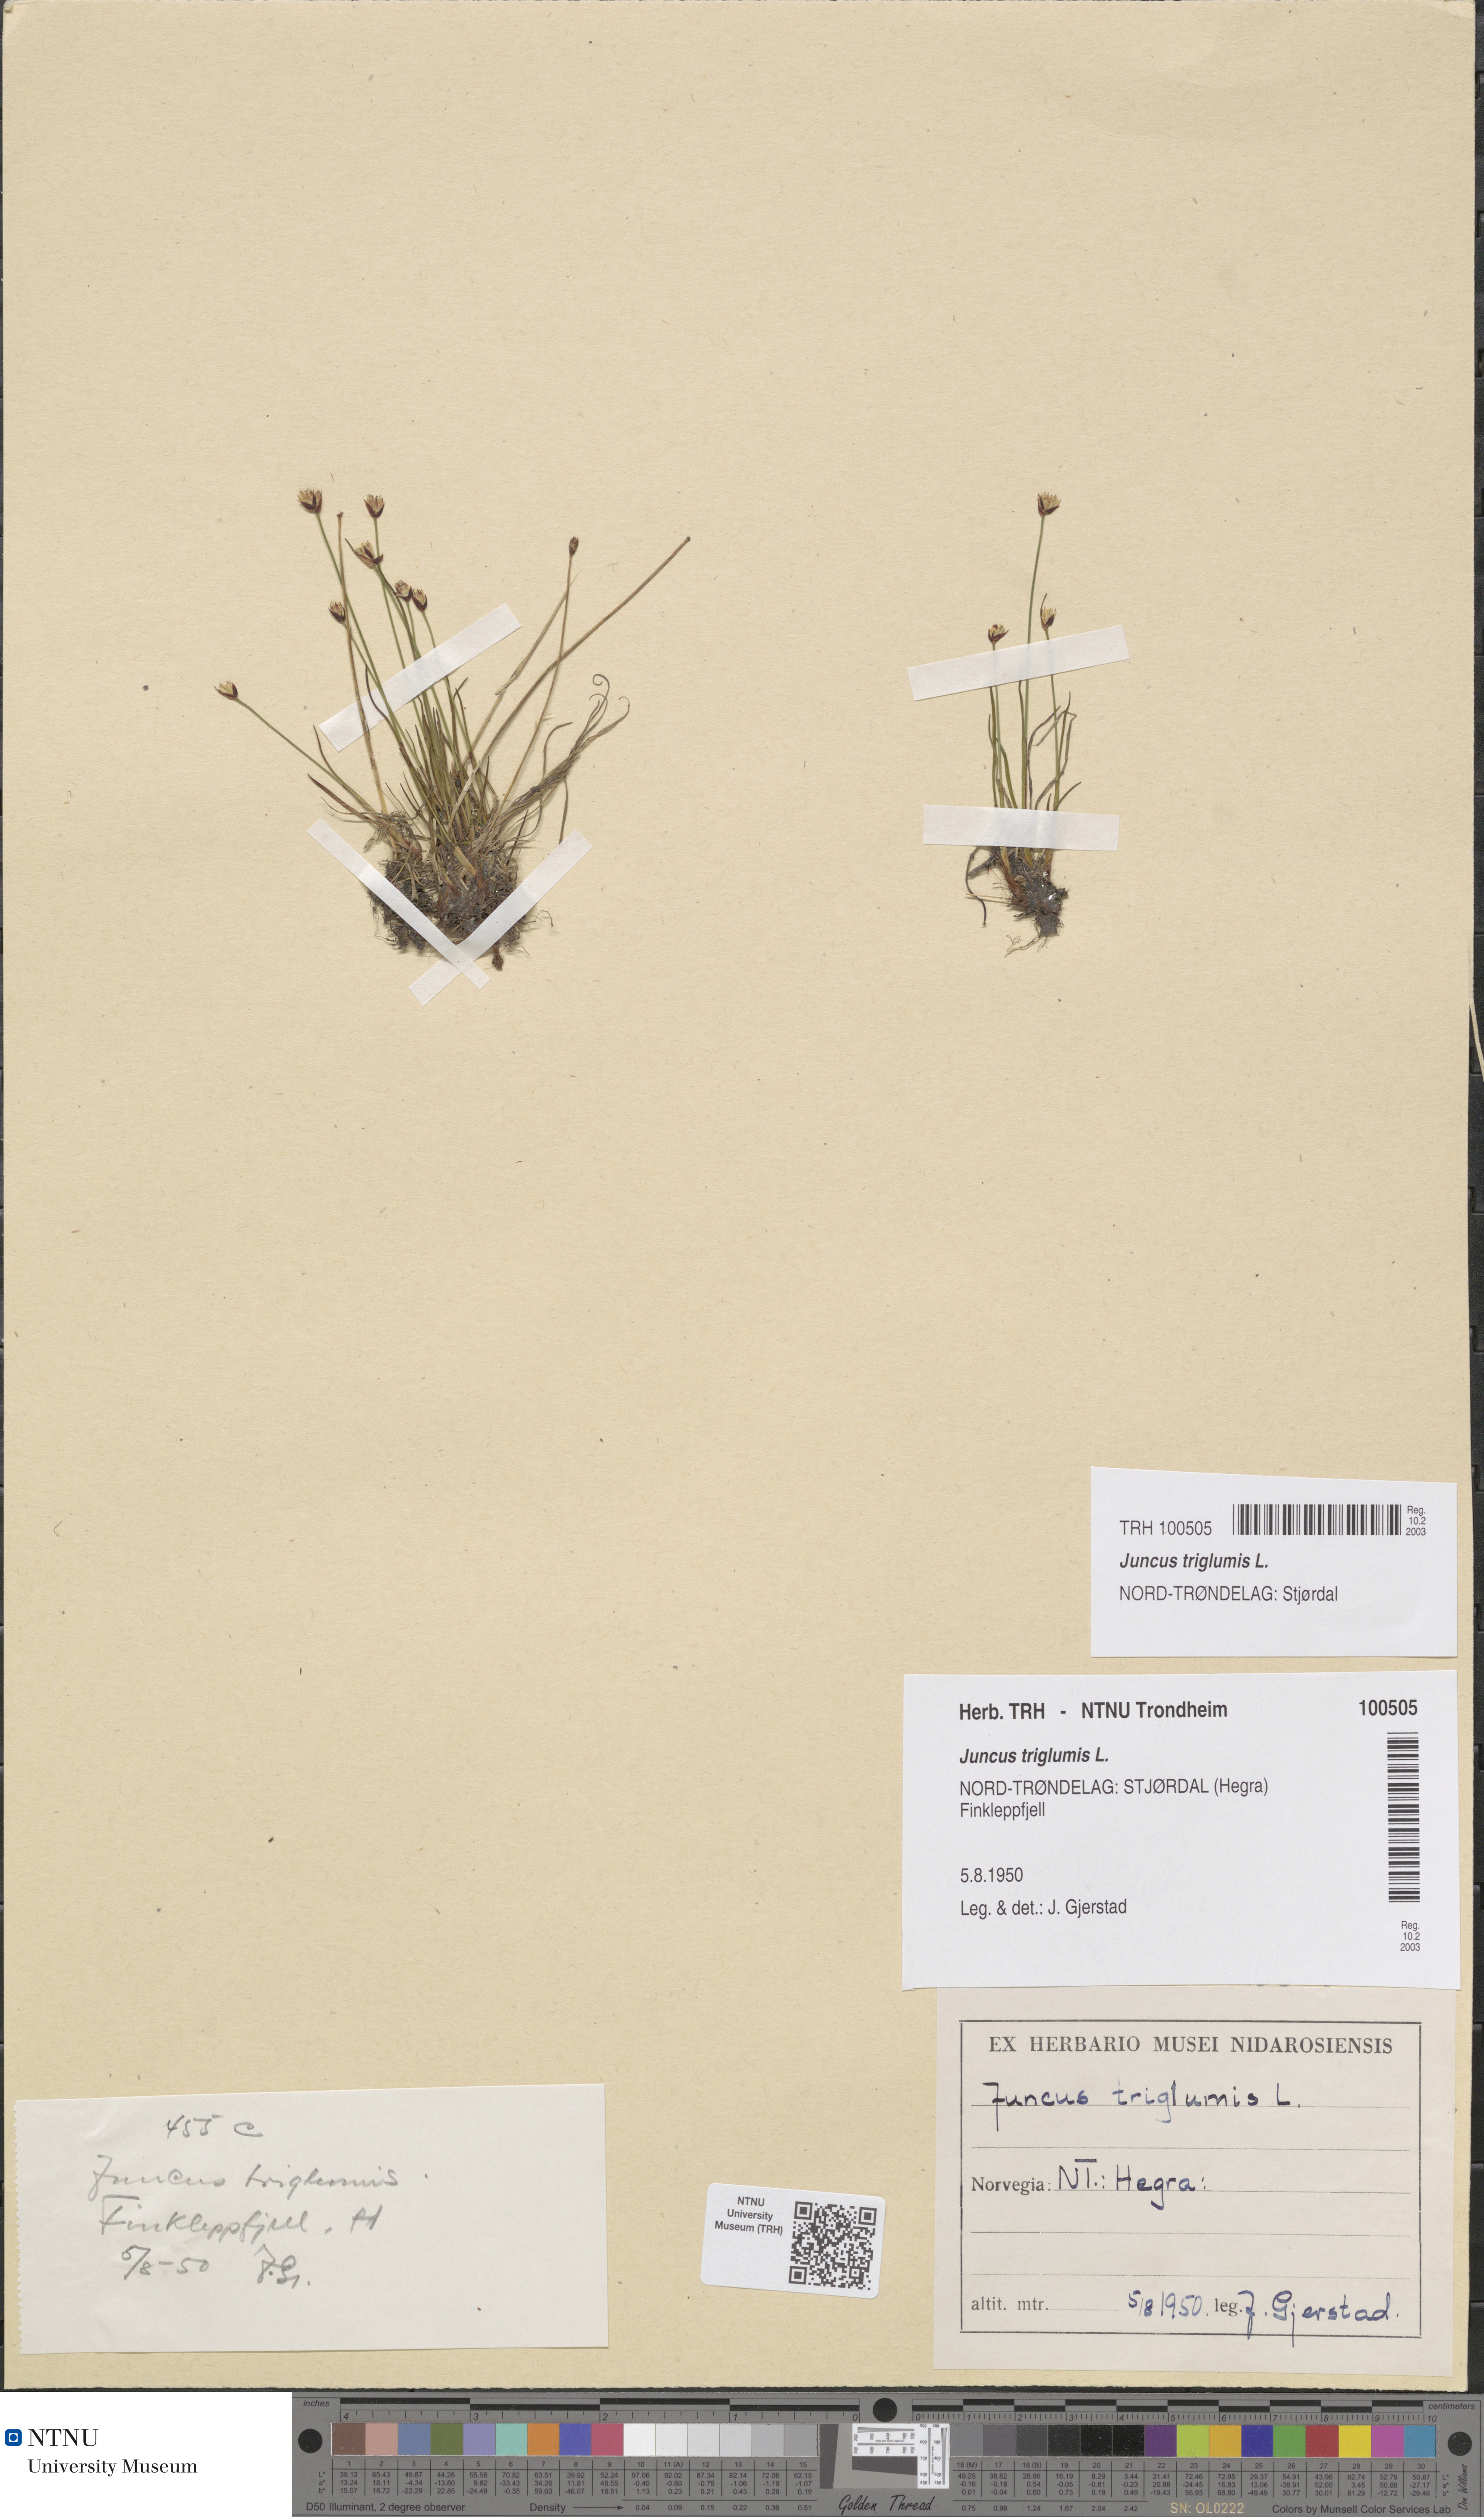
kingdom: Plantae
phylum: Tracheophyta
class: Liliopsida
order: Poales
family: Juncaceae
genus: Juncus
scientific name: Juncus triglumis
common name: Three-flowered rush
